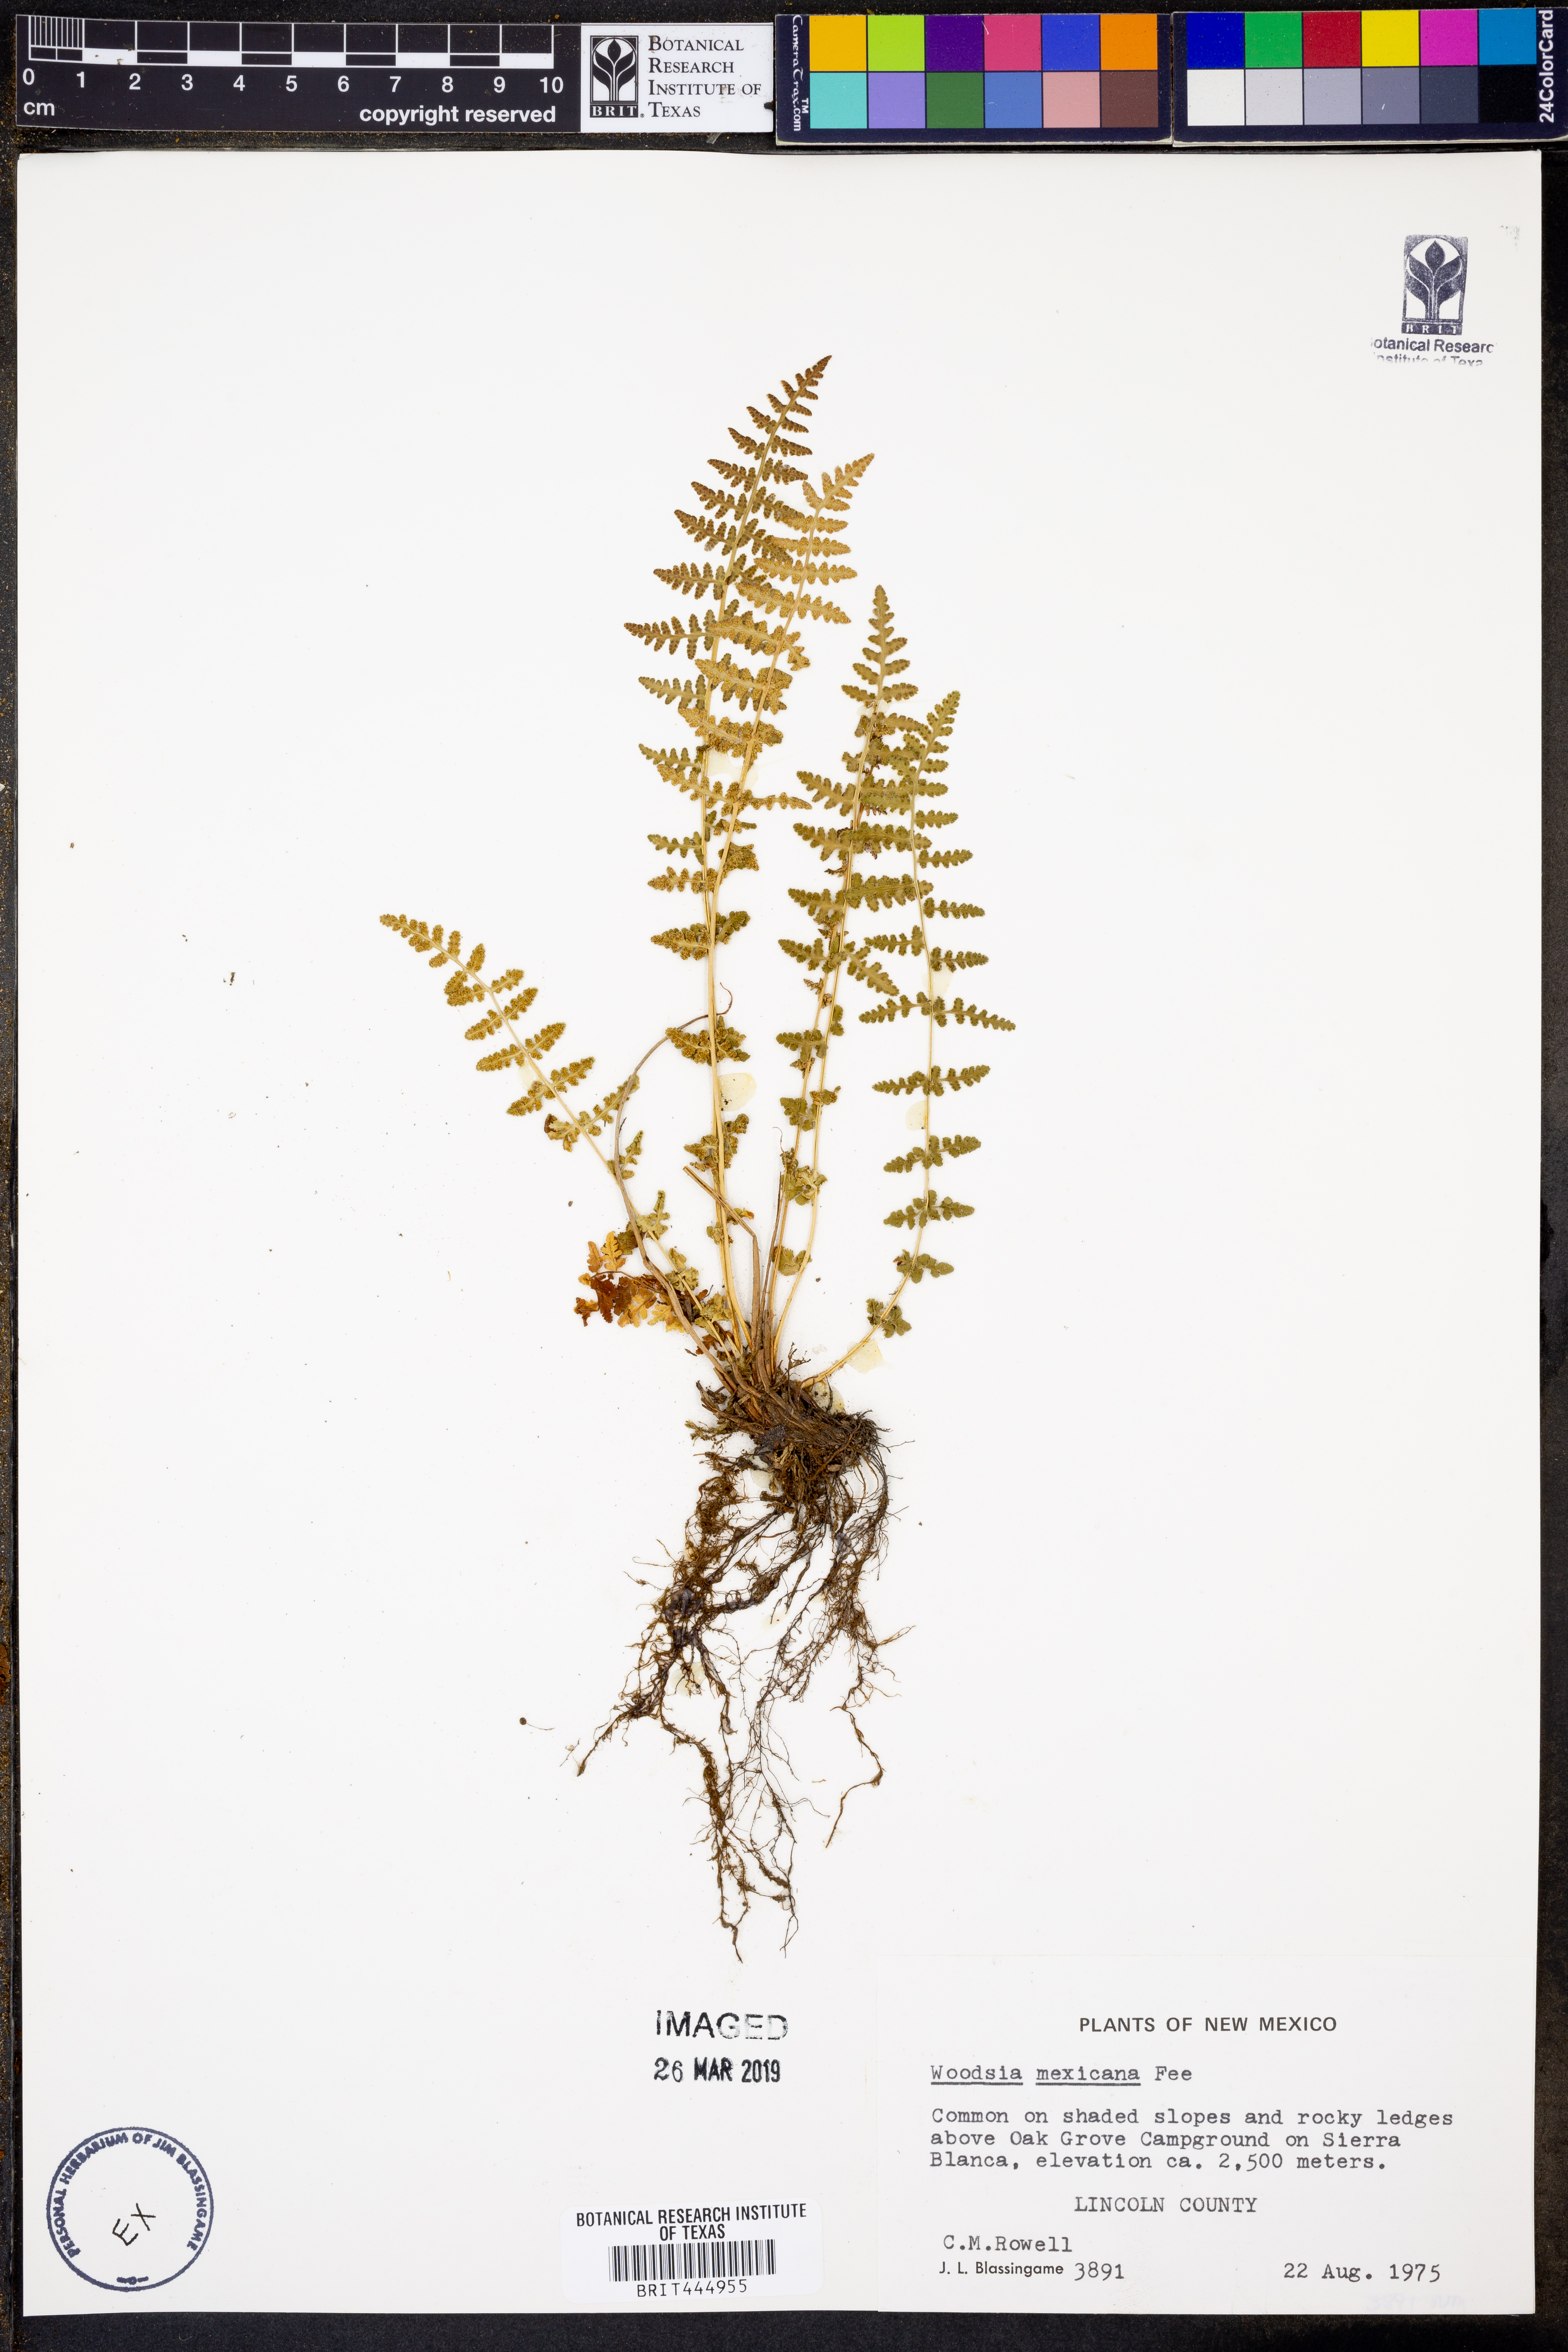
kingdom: Plantae
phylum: Tracheophyta
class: Polypodiopsida
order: Polypodiales
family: Woodsiaceae
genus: Physematium
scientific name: Physematium mexicanum
